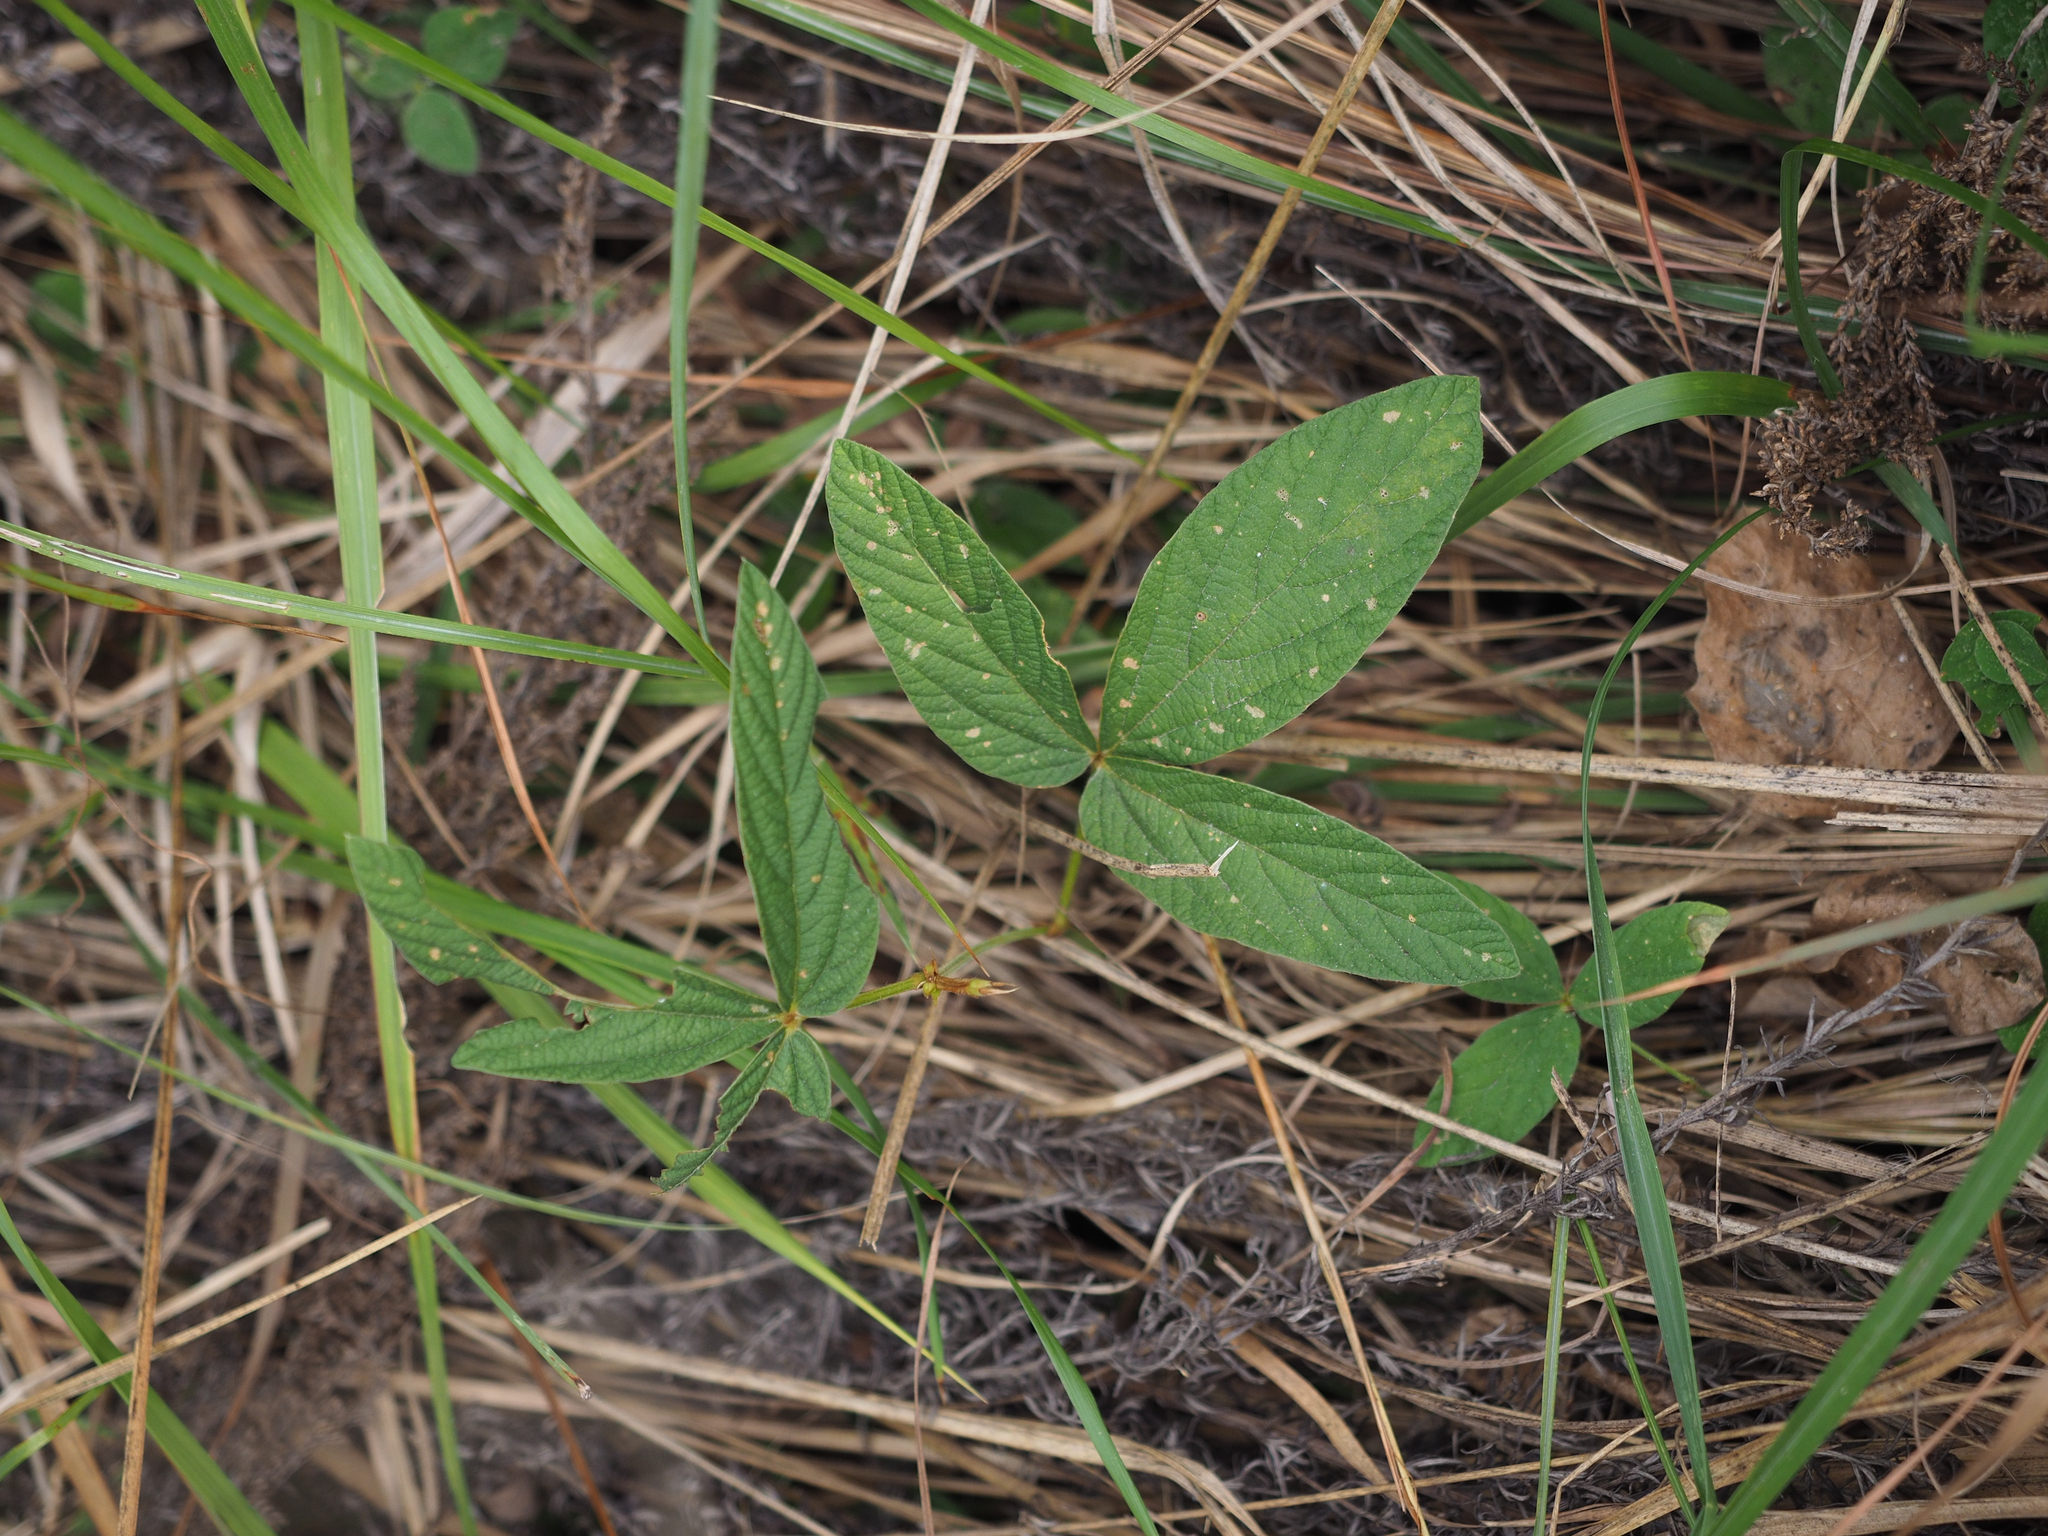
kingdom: Plantae
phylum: Tracheophyta
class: Magnoliopsida
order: Fabales
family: Fabaceae
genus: Flemingia
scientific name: Flemingia macrophylla
